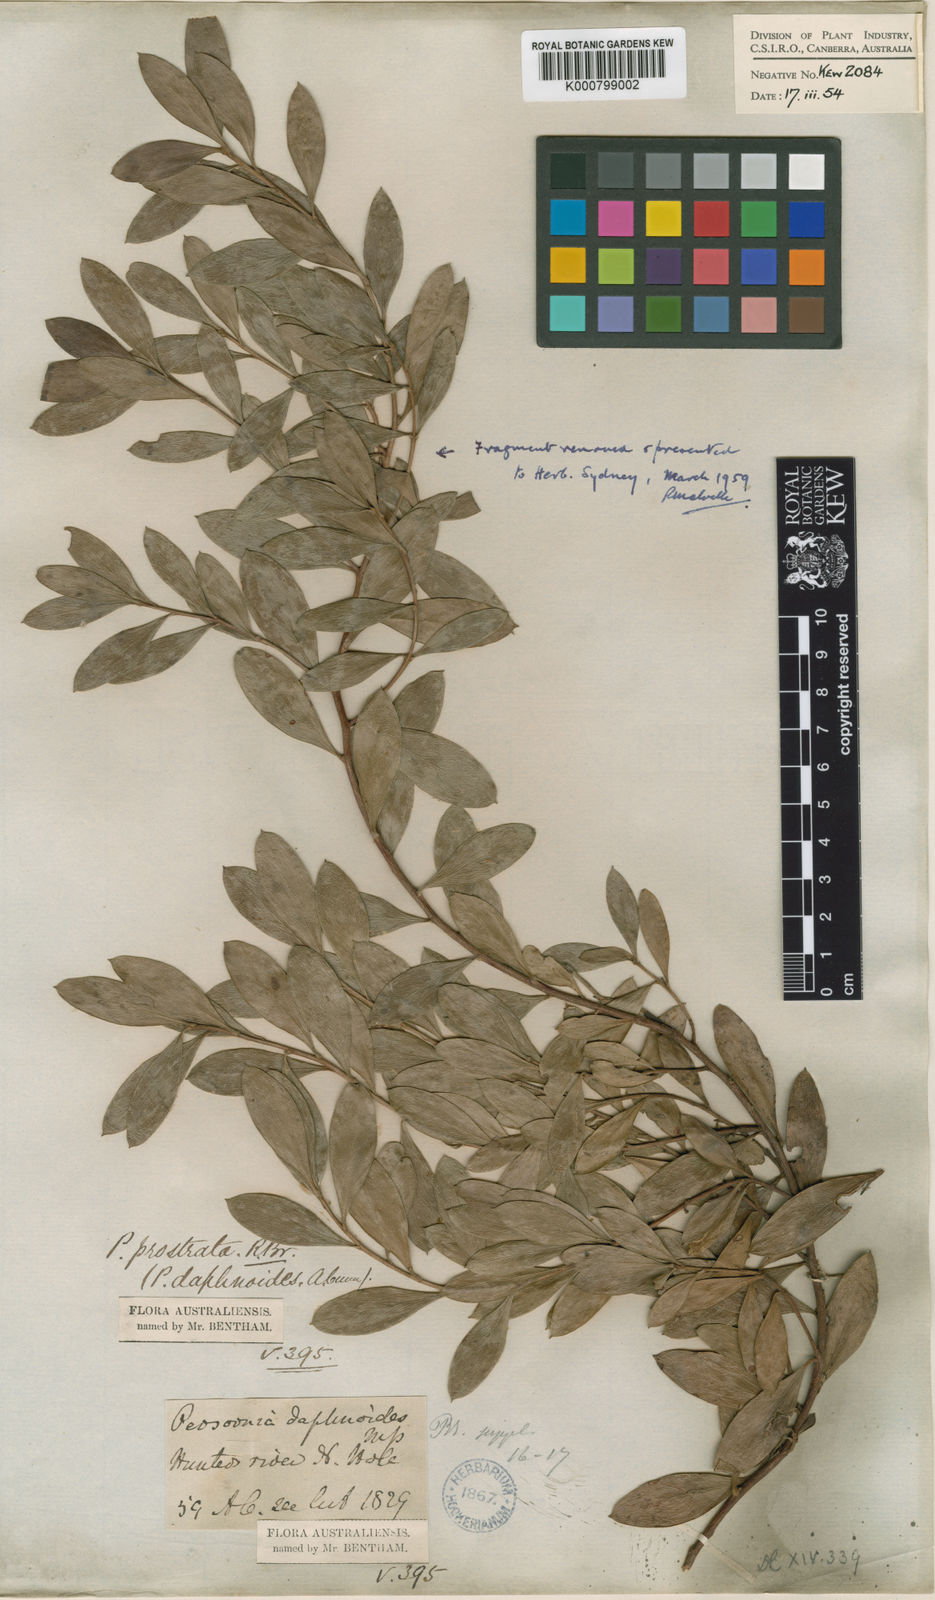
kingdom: Plantae
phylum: Tracheophyta
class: Magnoliopsida
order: Proteales
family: Proteaceae
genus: Persoonia
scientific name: Persoonia daphnoides
